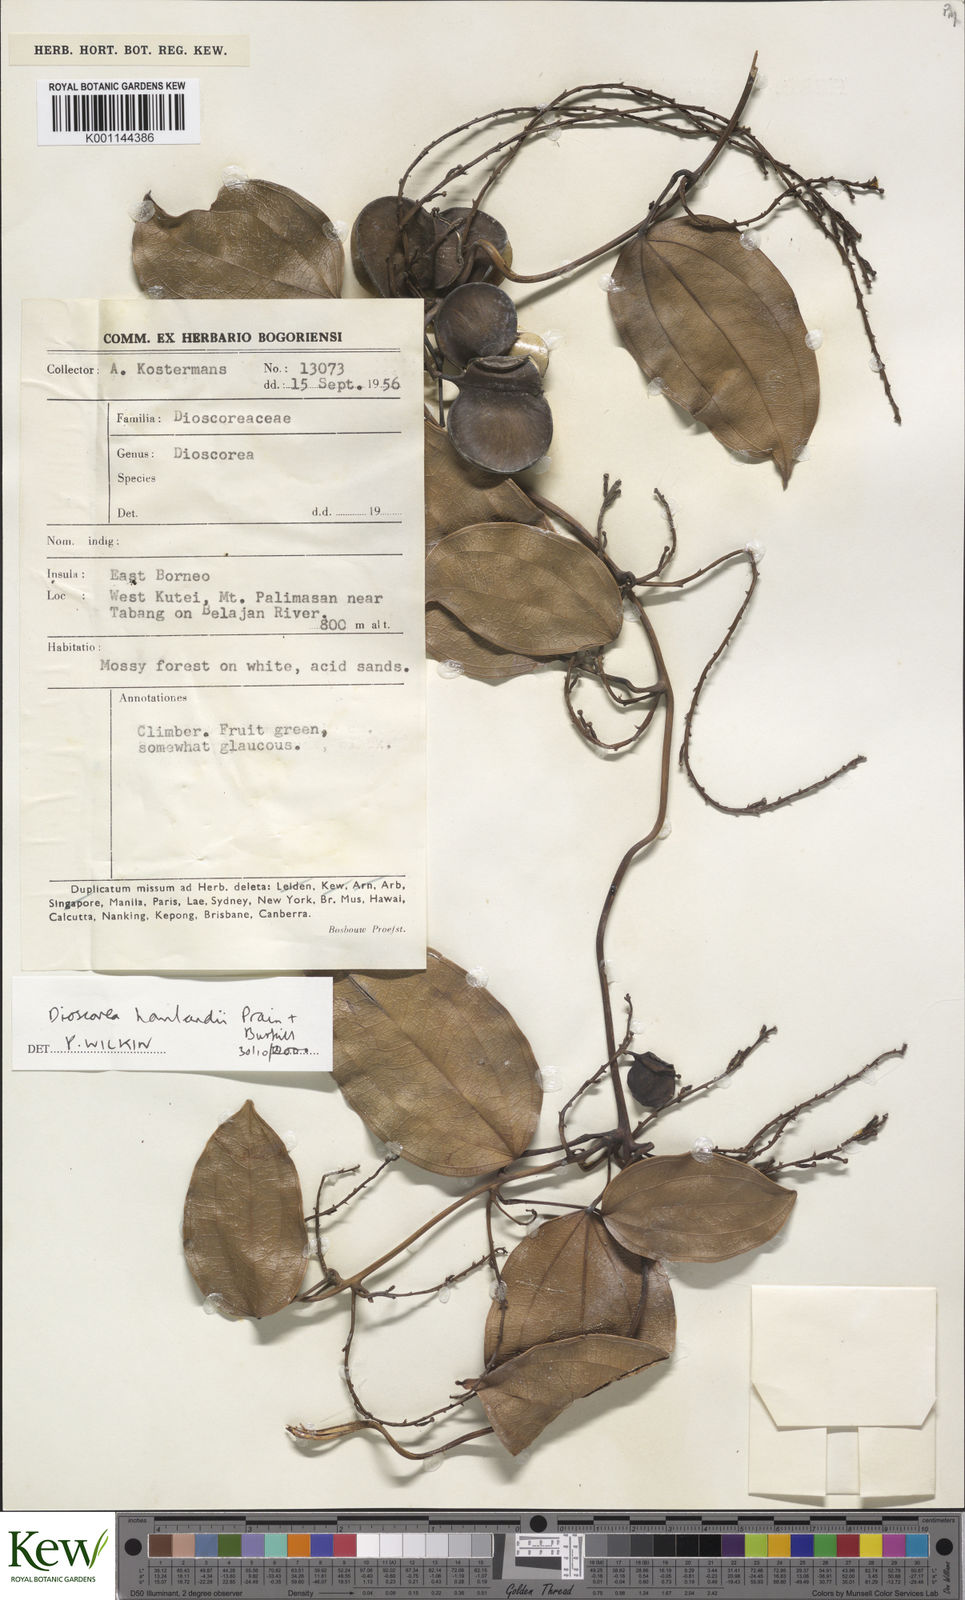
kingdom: Plantae
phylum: Tracheophyta
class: Liliopsida
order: Dioscoreales
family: Dioscoreaceae
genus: Dioscorea
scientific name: Dioscorea havilandii
